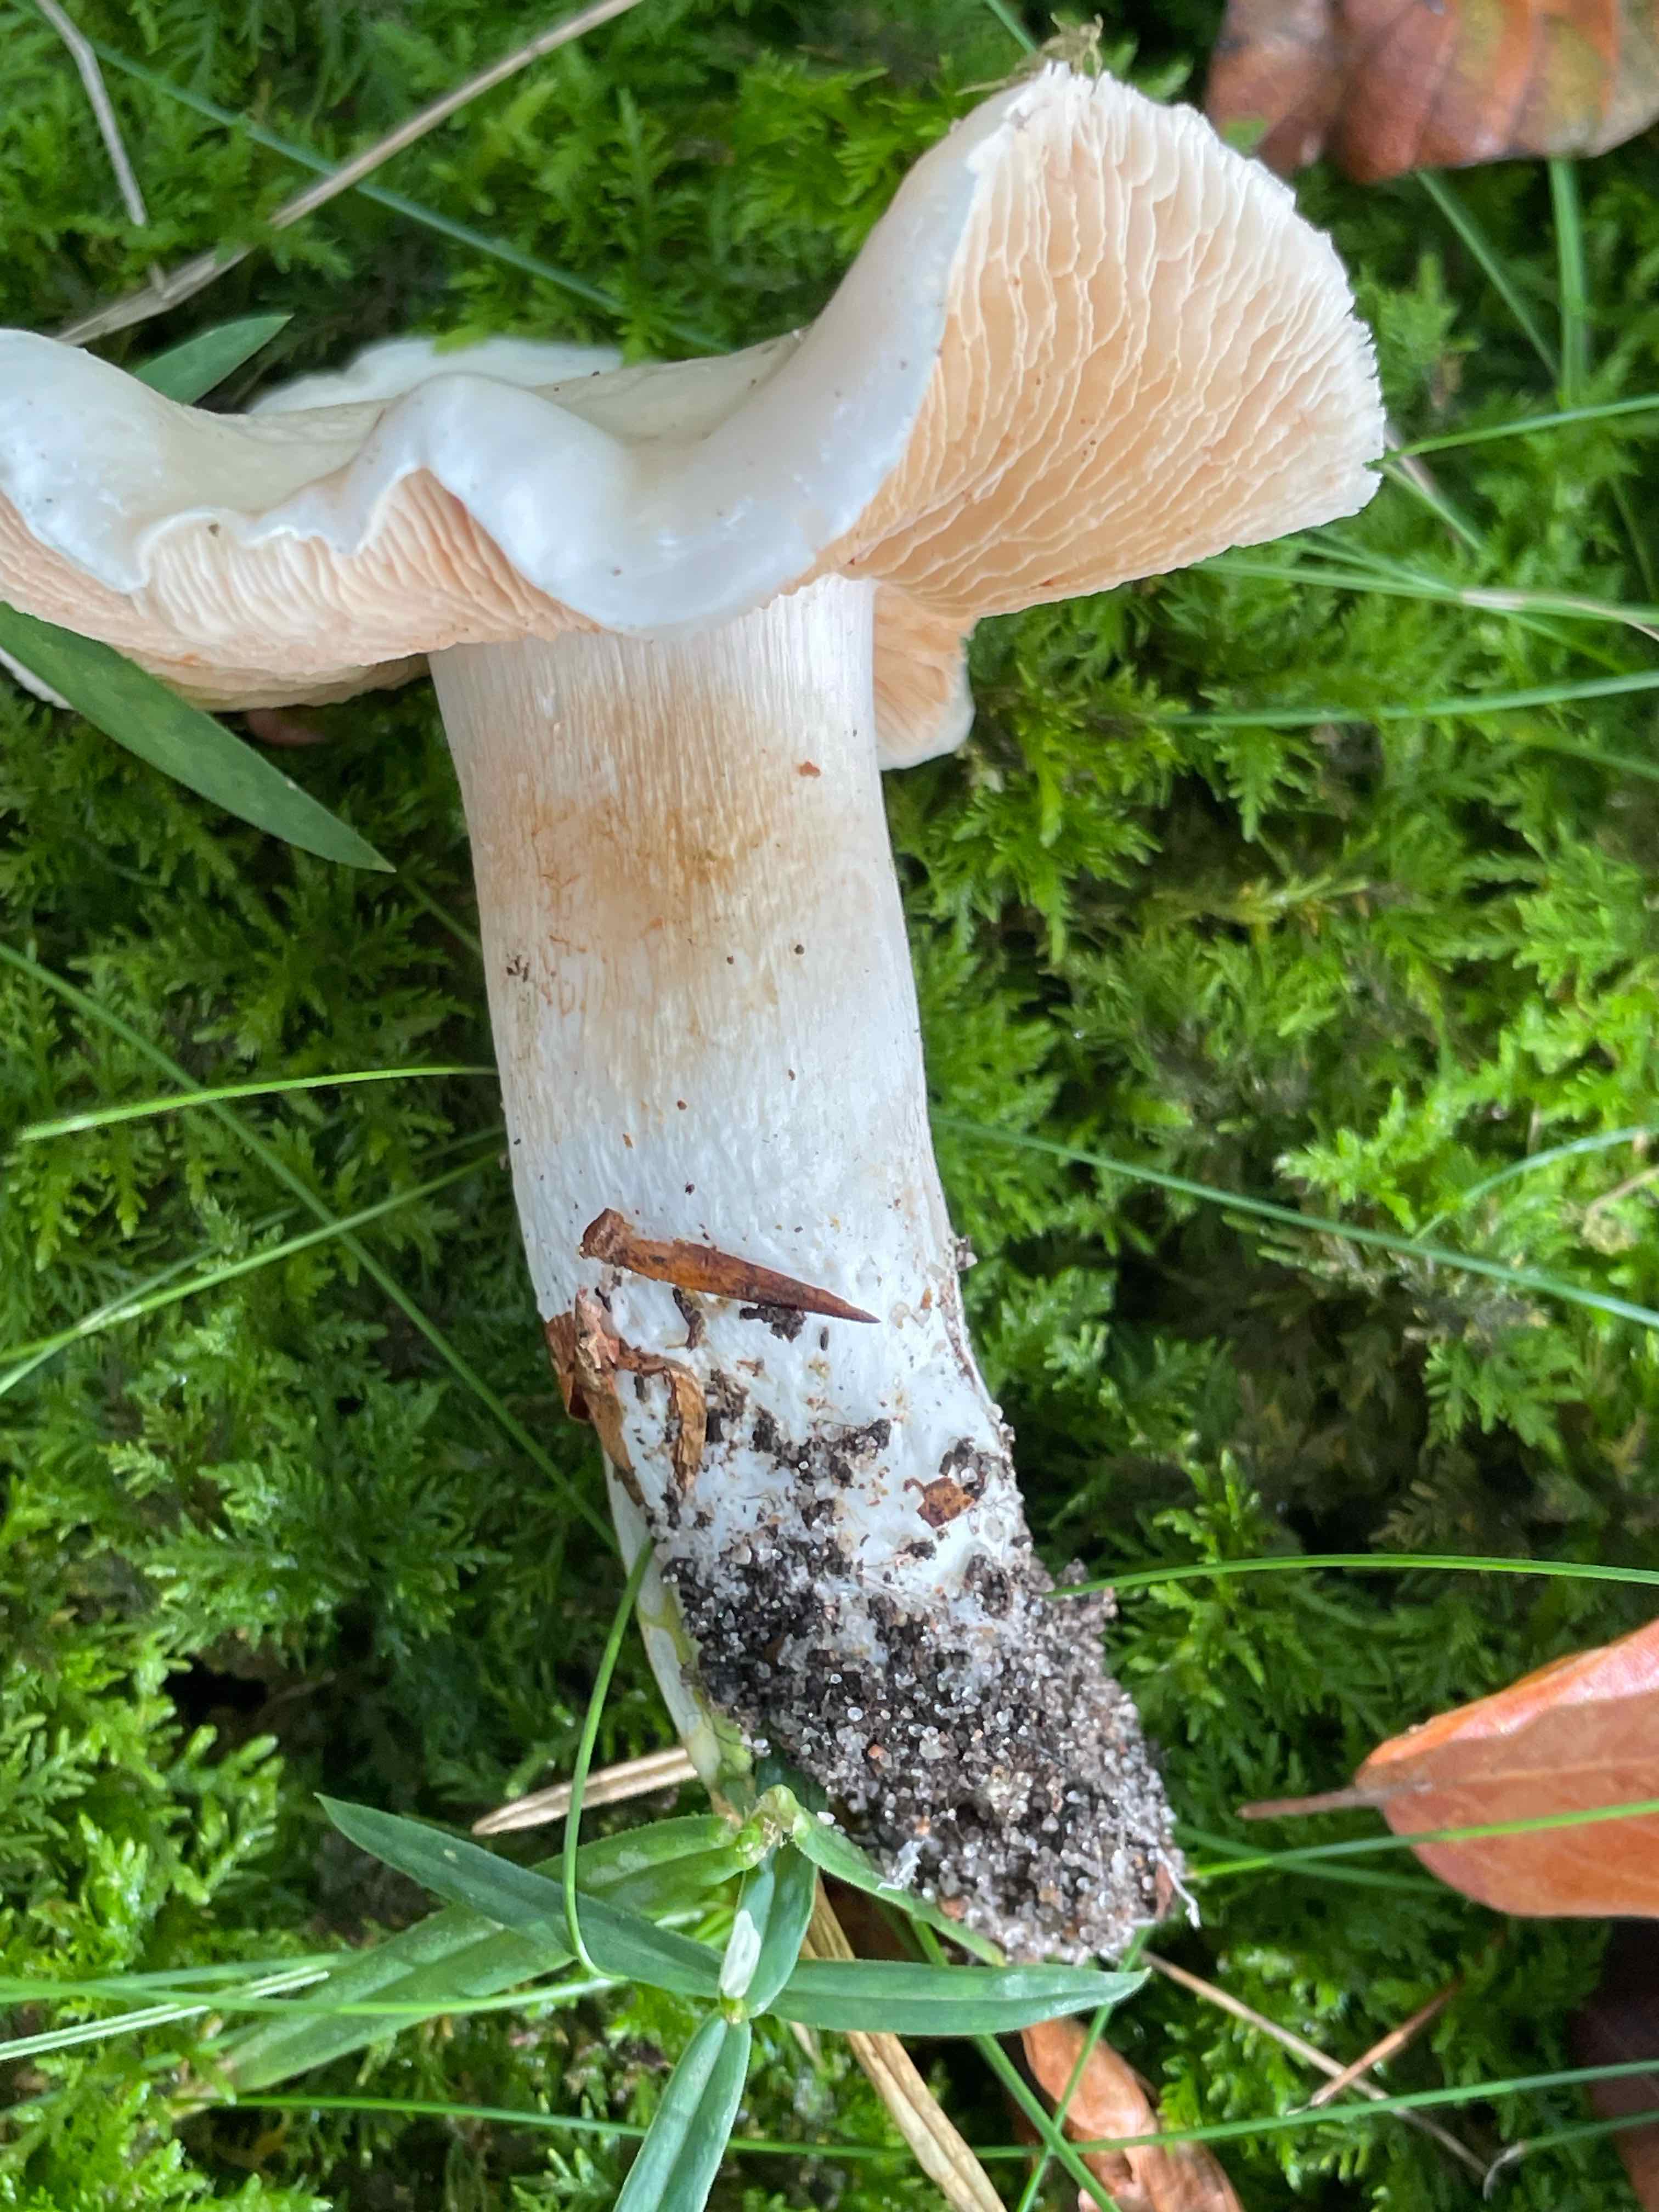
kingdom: Fungi
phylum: Basidiomycota
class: Agaricomycetes
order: Agaricales
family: Cortinariaceae
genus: Thaxterogaster
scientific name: Thaxterogaster barbatus
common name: elfenbens-slørhat
